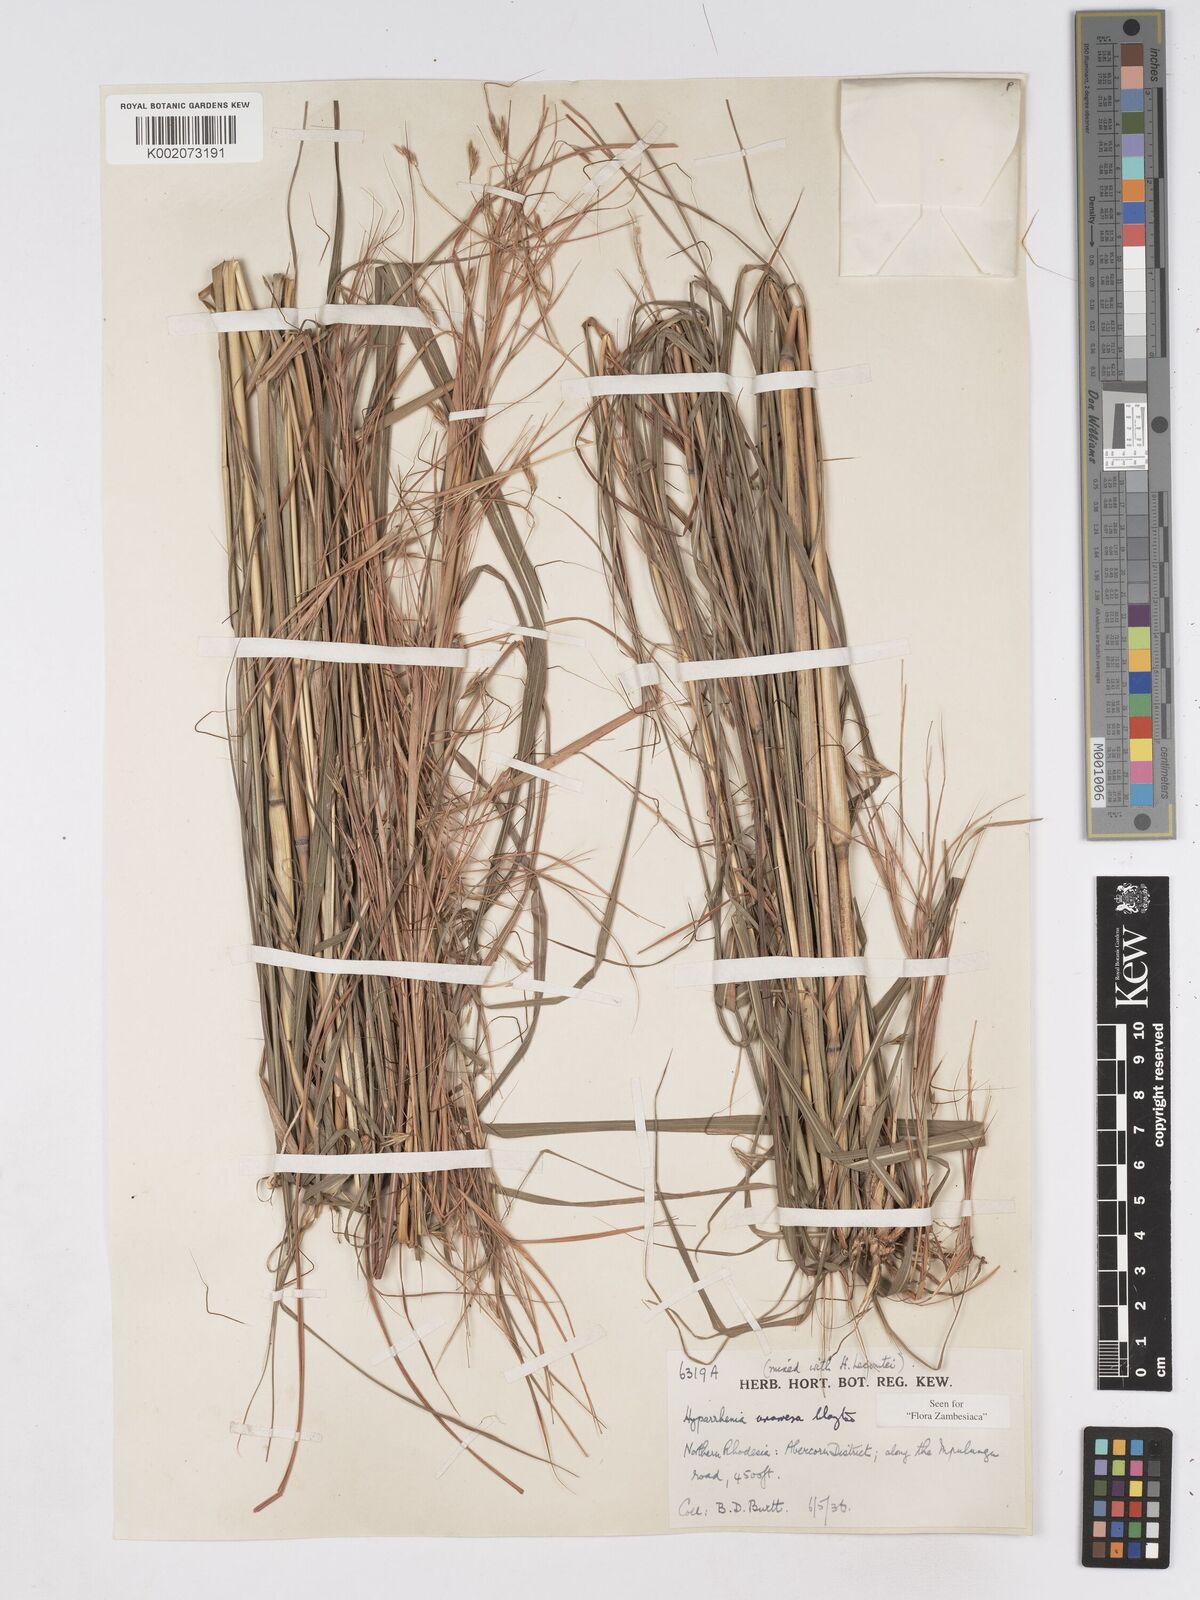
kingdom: Plantae
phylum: Tracheophyta
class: Liliopsida
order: Poales
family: Poaceae
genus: Hyparrhenia
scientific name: Hyparrhenia anamesa
